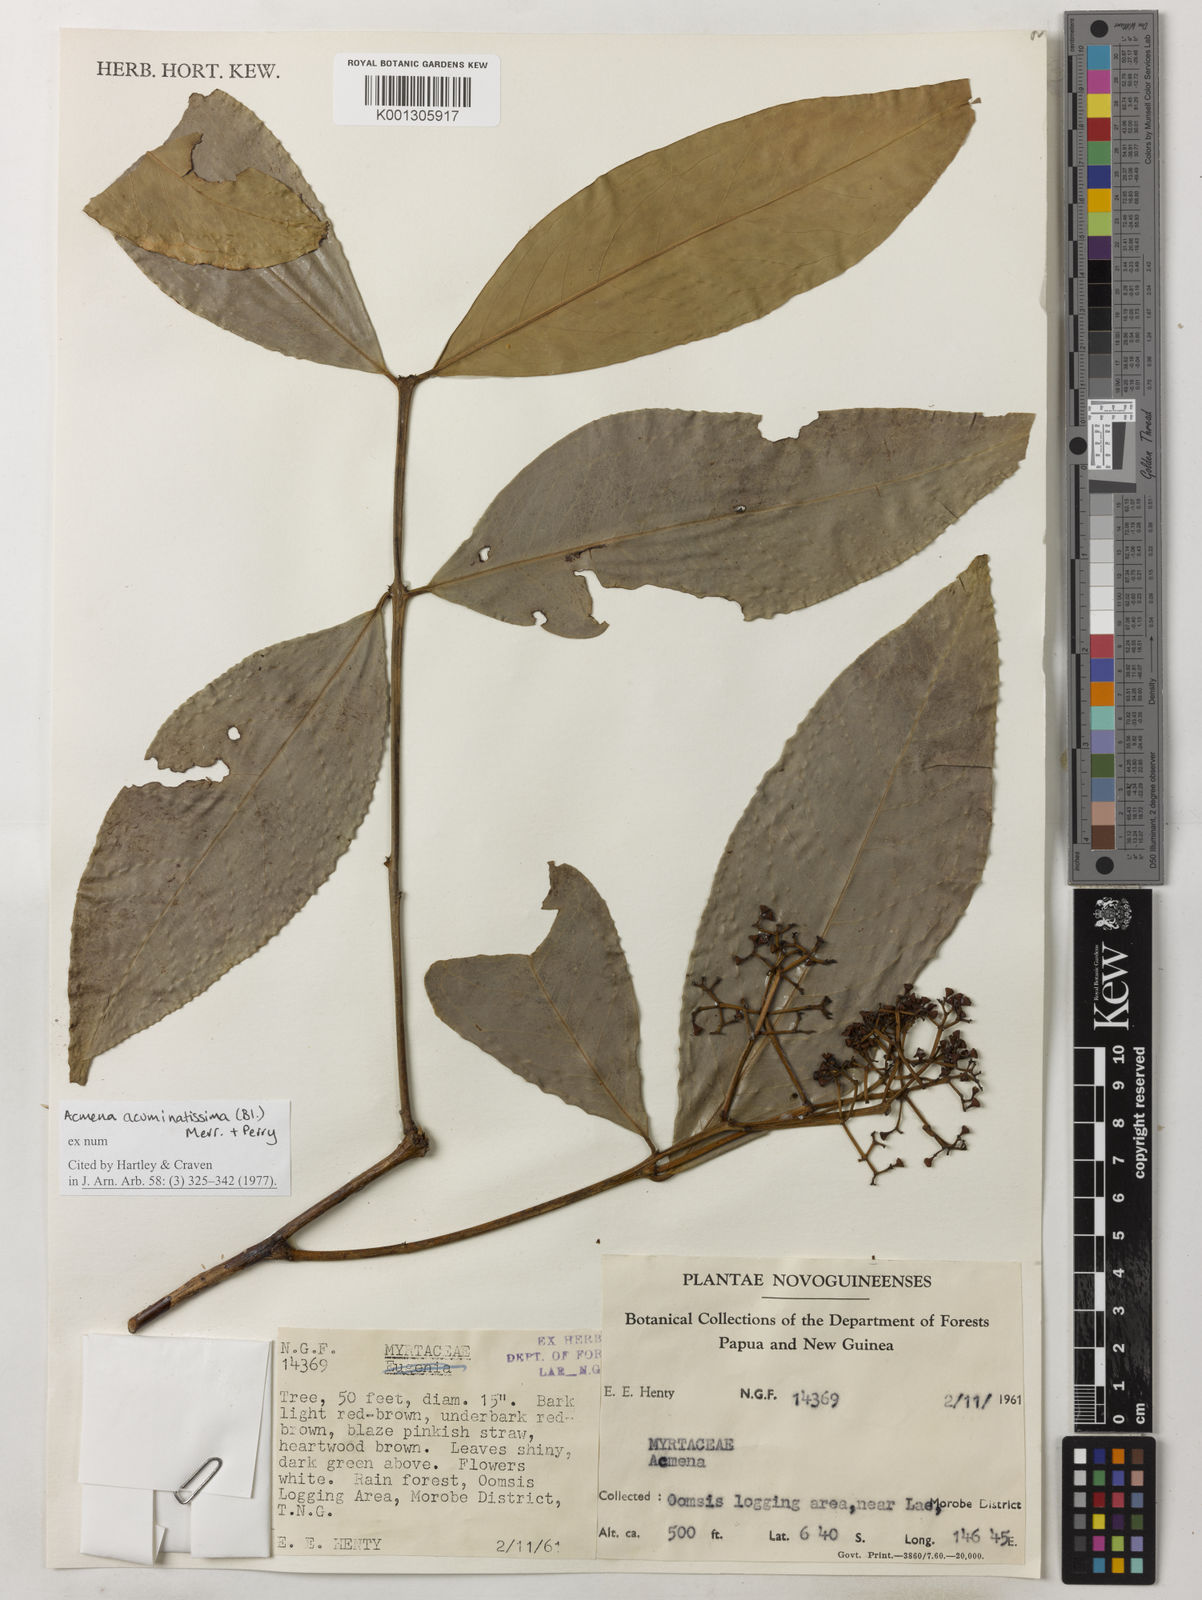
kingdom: Plantae
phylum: Tracheophyta
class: Magnoliopsida
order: Myrtales
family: Myrtaceae
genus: Syzygium
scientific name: Syzygium acuminatissimum
